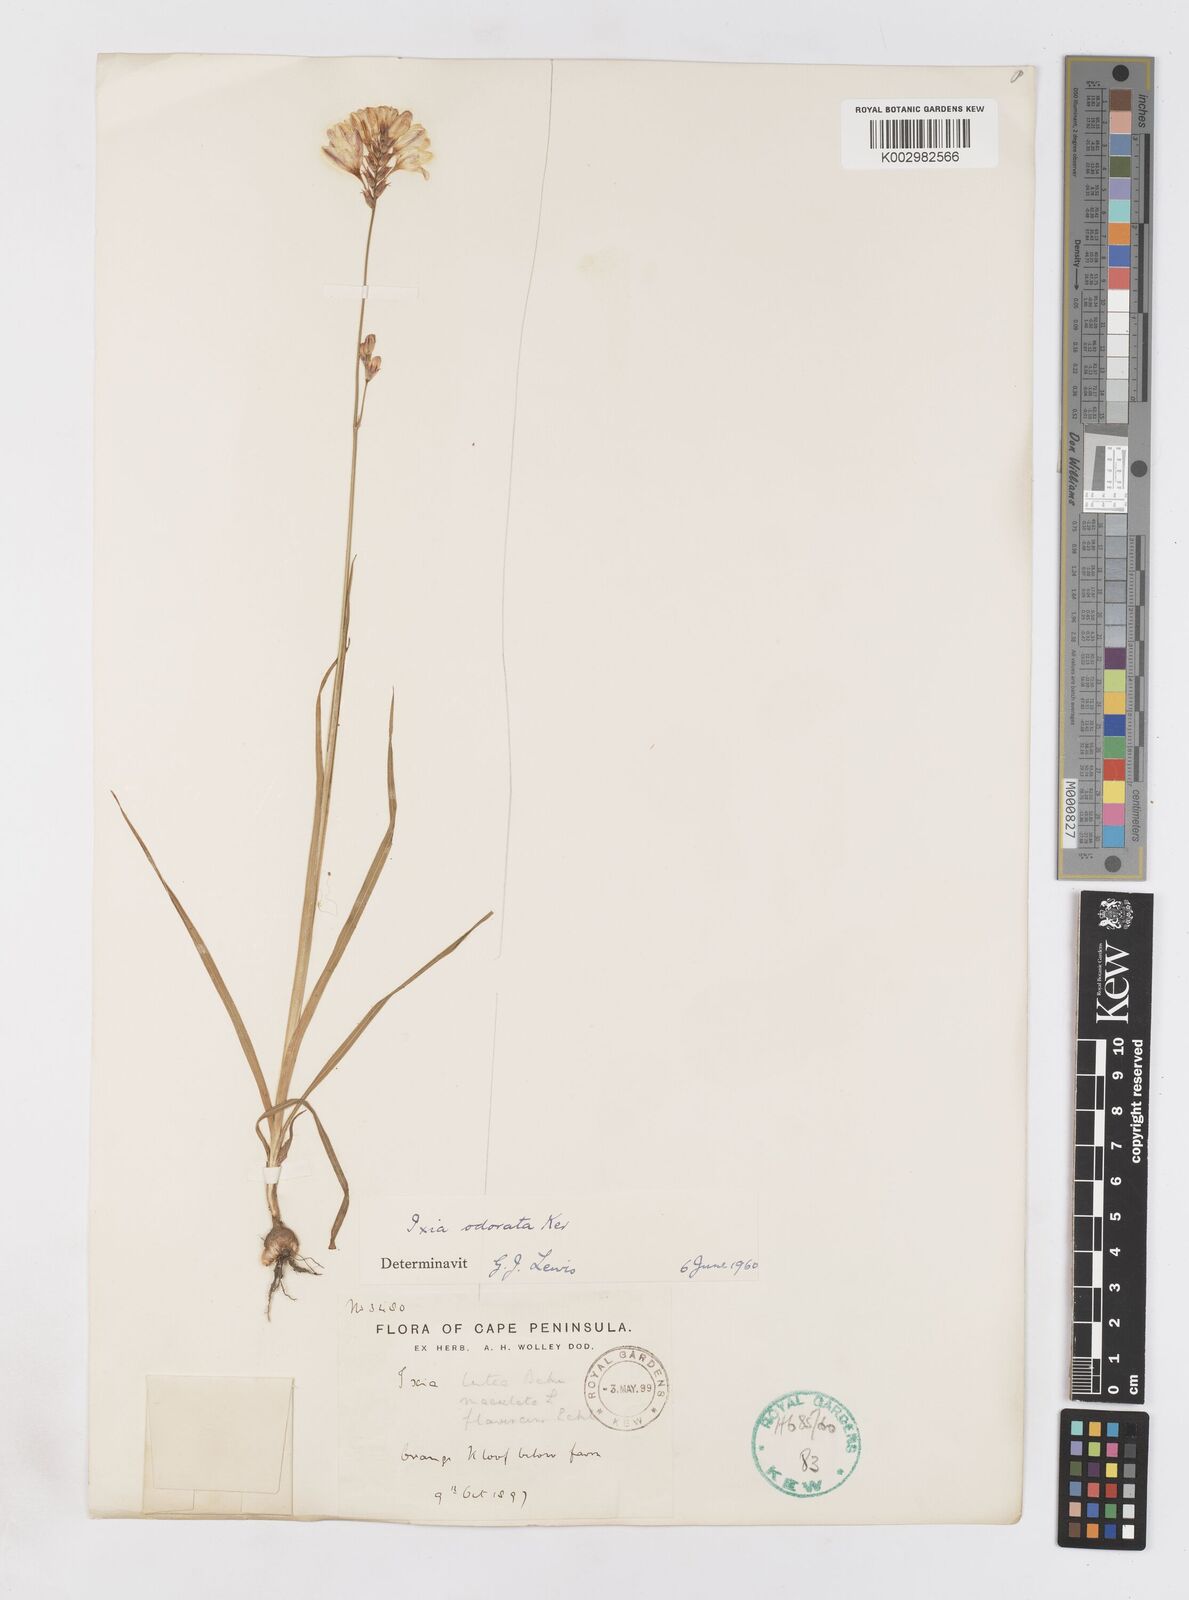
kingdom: Plantae
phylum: Tracheophyta
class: Liliopsida
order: Asparagales
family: Iridaceae
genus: Ixia
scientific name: Ixia odorata
